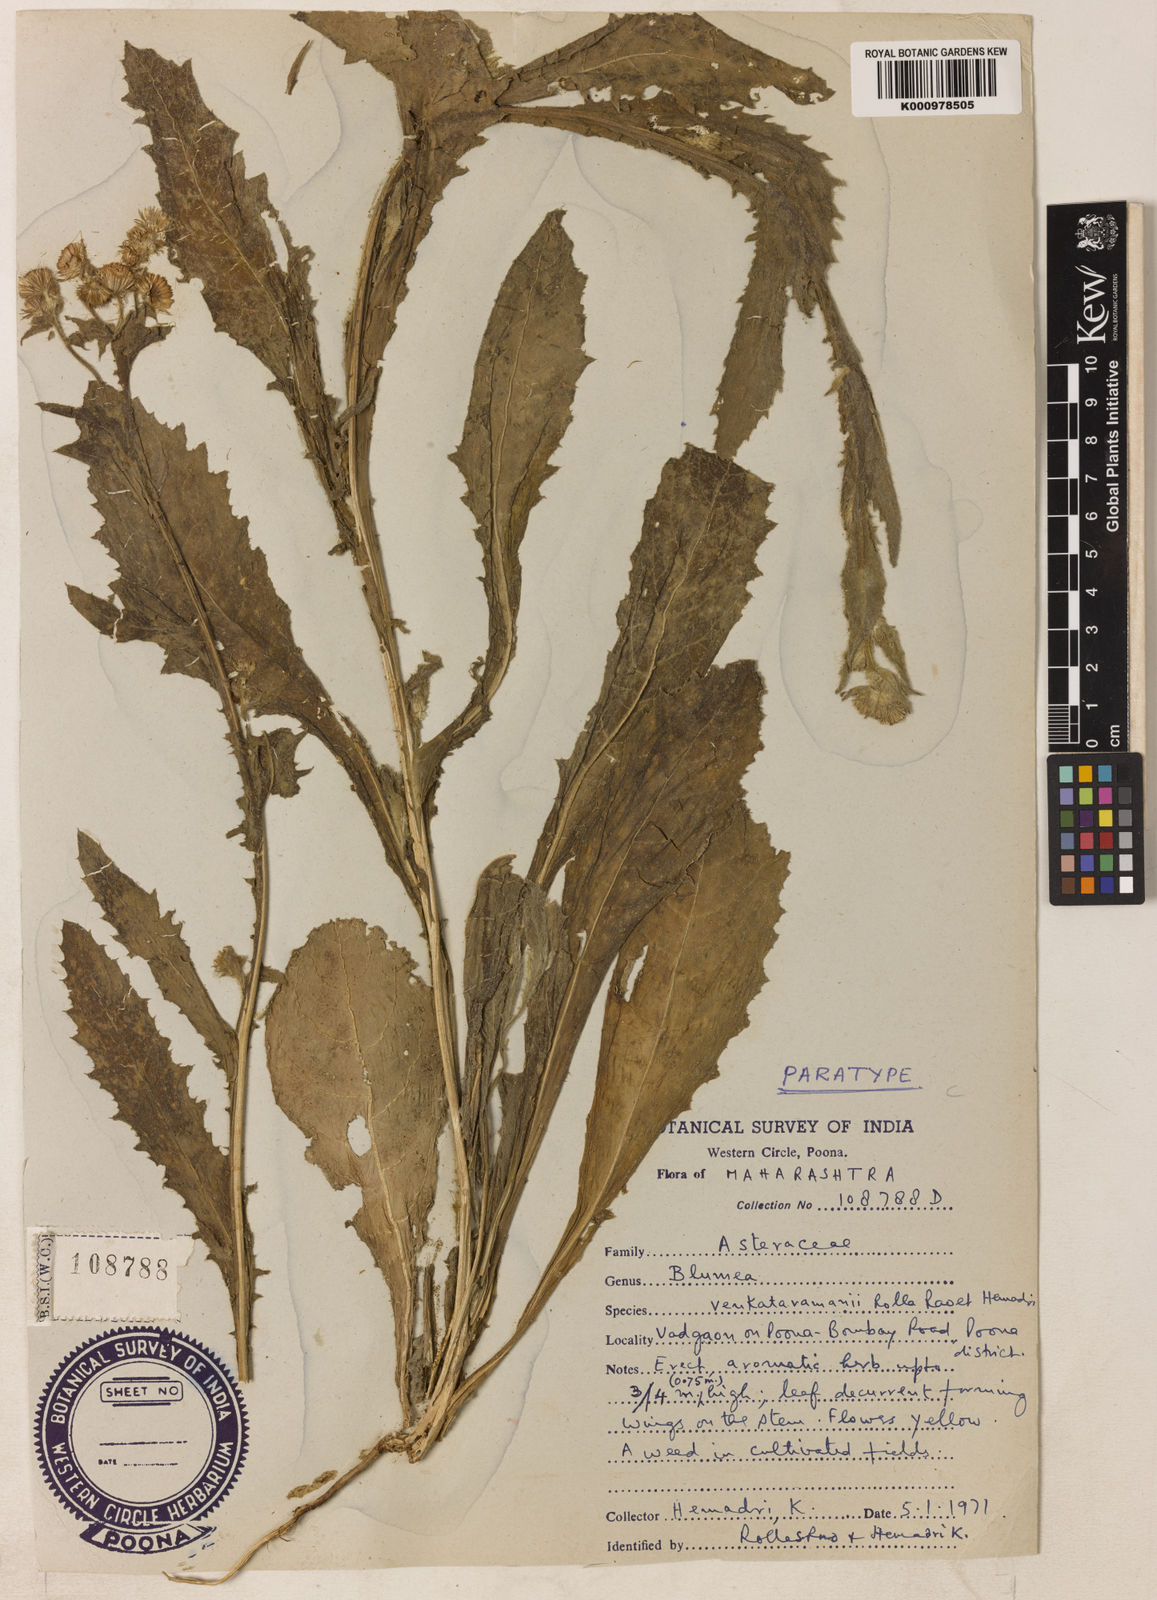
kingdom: Plantae
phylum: Tracheophyta
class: Magnoliopsida
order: Asterales
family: Asteraceae
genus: Blumea
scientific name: Blumea venkataramanii
